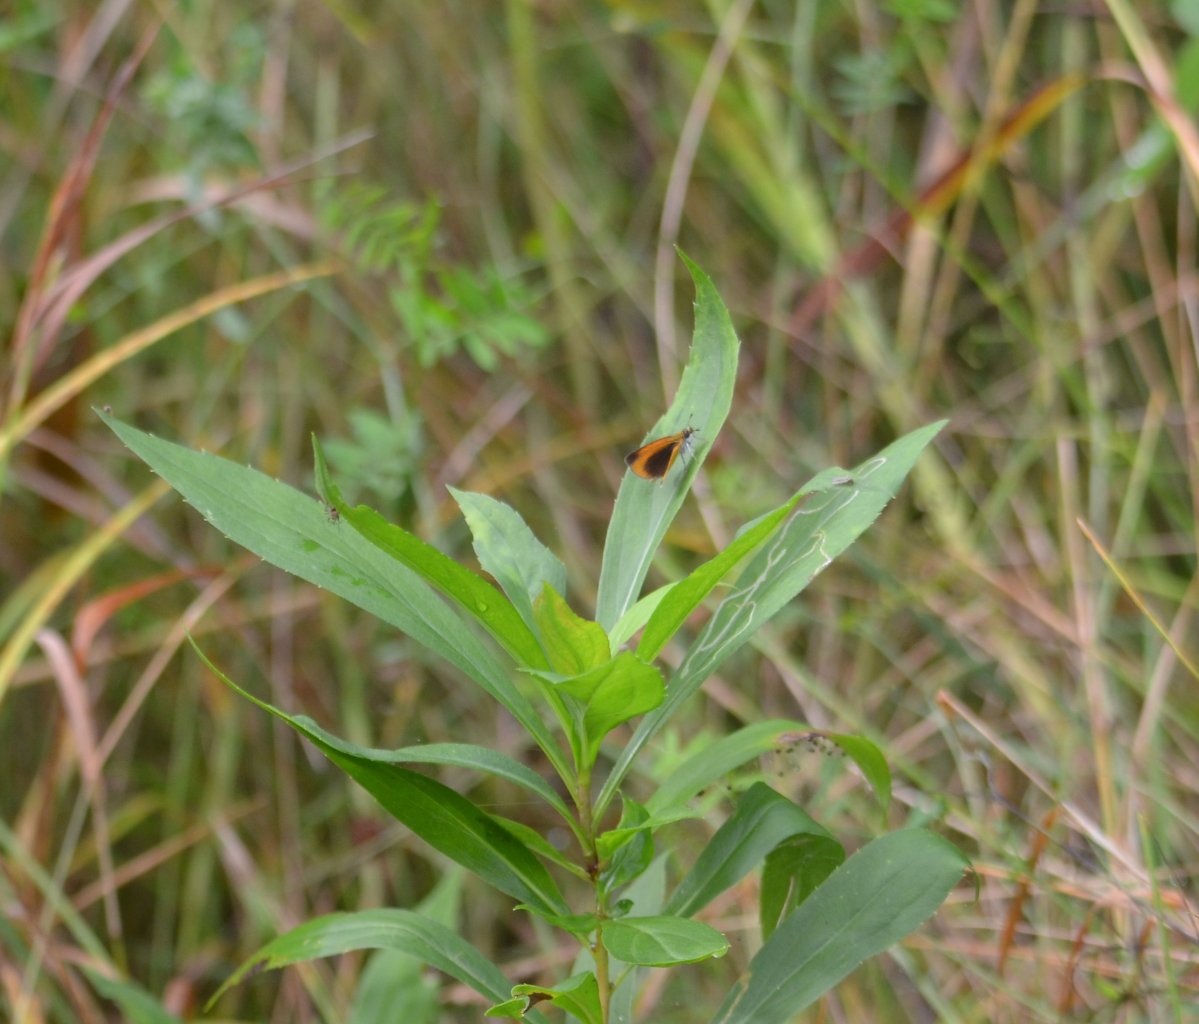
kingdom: Animalia
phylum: Arthropoda
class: Insecta
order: Lepidoptera
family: Hesperiidae
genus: Ancyloxypha
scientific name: Ancyloxypha numitor
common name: Least Skipper
